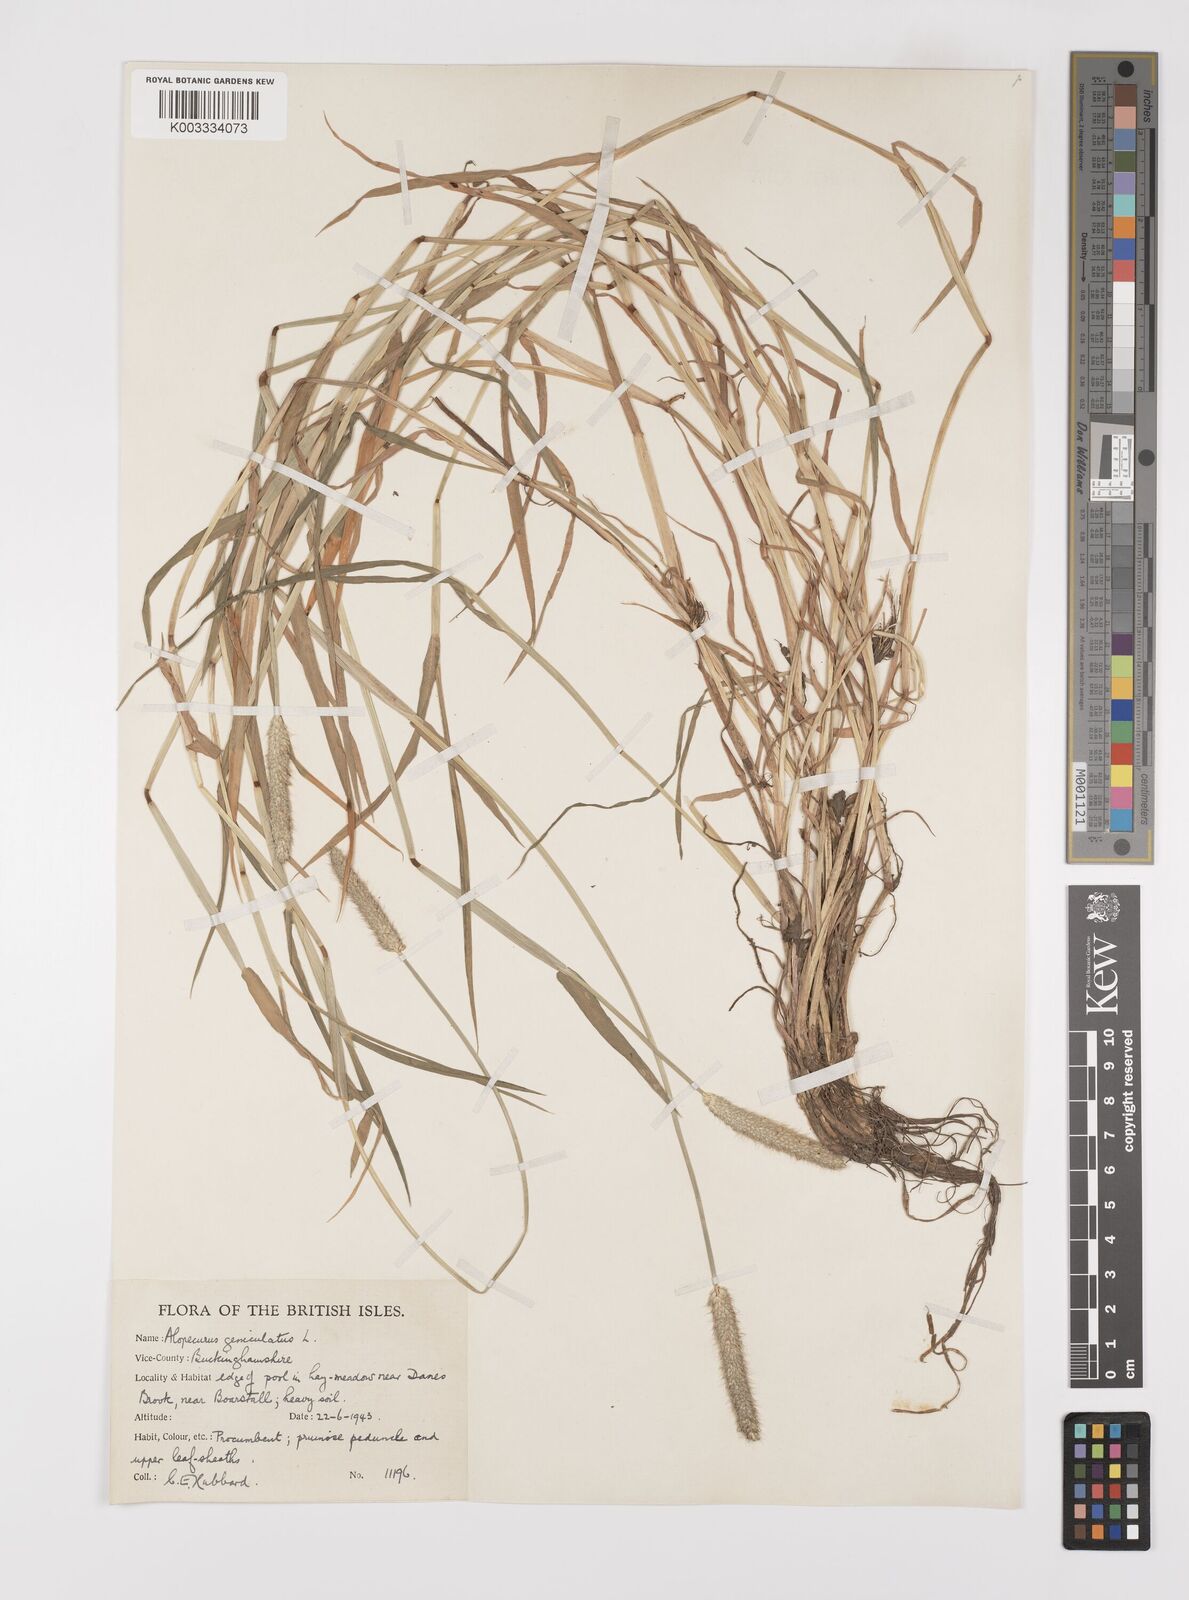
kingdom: Plantae
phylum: Tracheophyta
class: Liliopsida
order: Poales
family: Poaceae
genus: Alopecurus
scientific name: Alopecurus geniculatus
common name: Water foxtail
